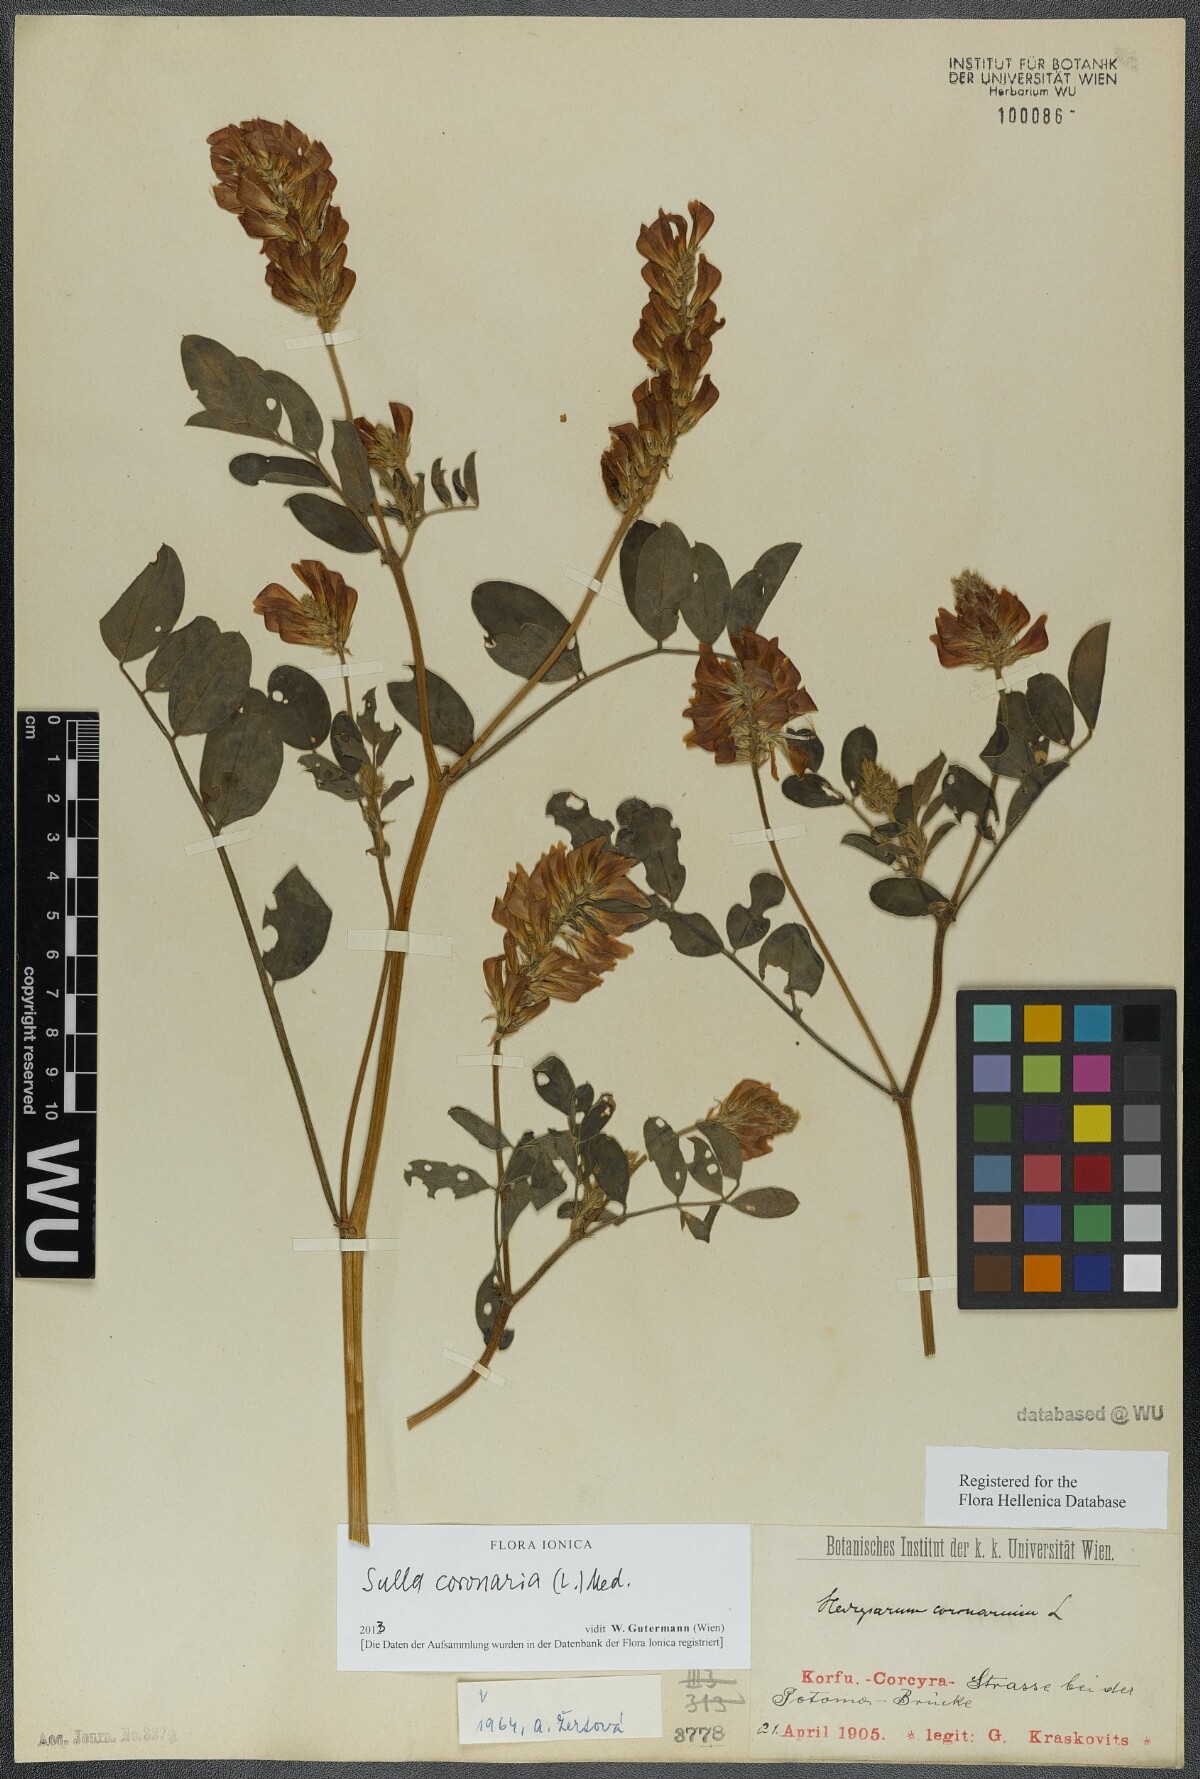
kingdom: Plantae
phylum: Tracheophyta
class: Magnoliopsida
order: Fabales
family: Fabaceae
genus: Sulla
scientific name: Sulla coronaria
